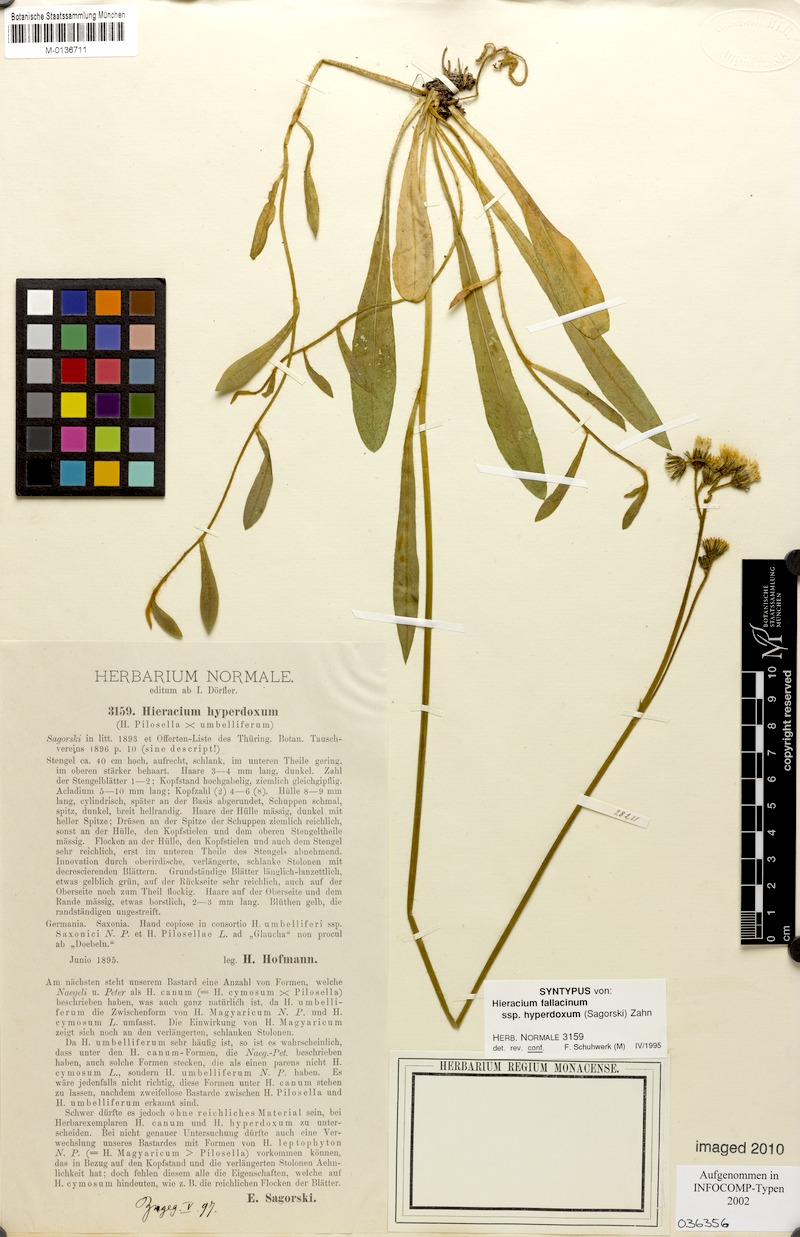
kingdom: Plantae
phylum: Tracheophyta
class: Magnoliopsida
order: Asterales
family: Asteraceae
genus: Pilosella
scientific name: Pilosella fallacina
